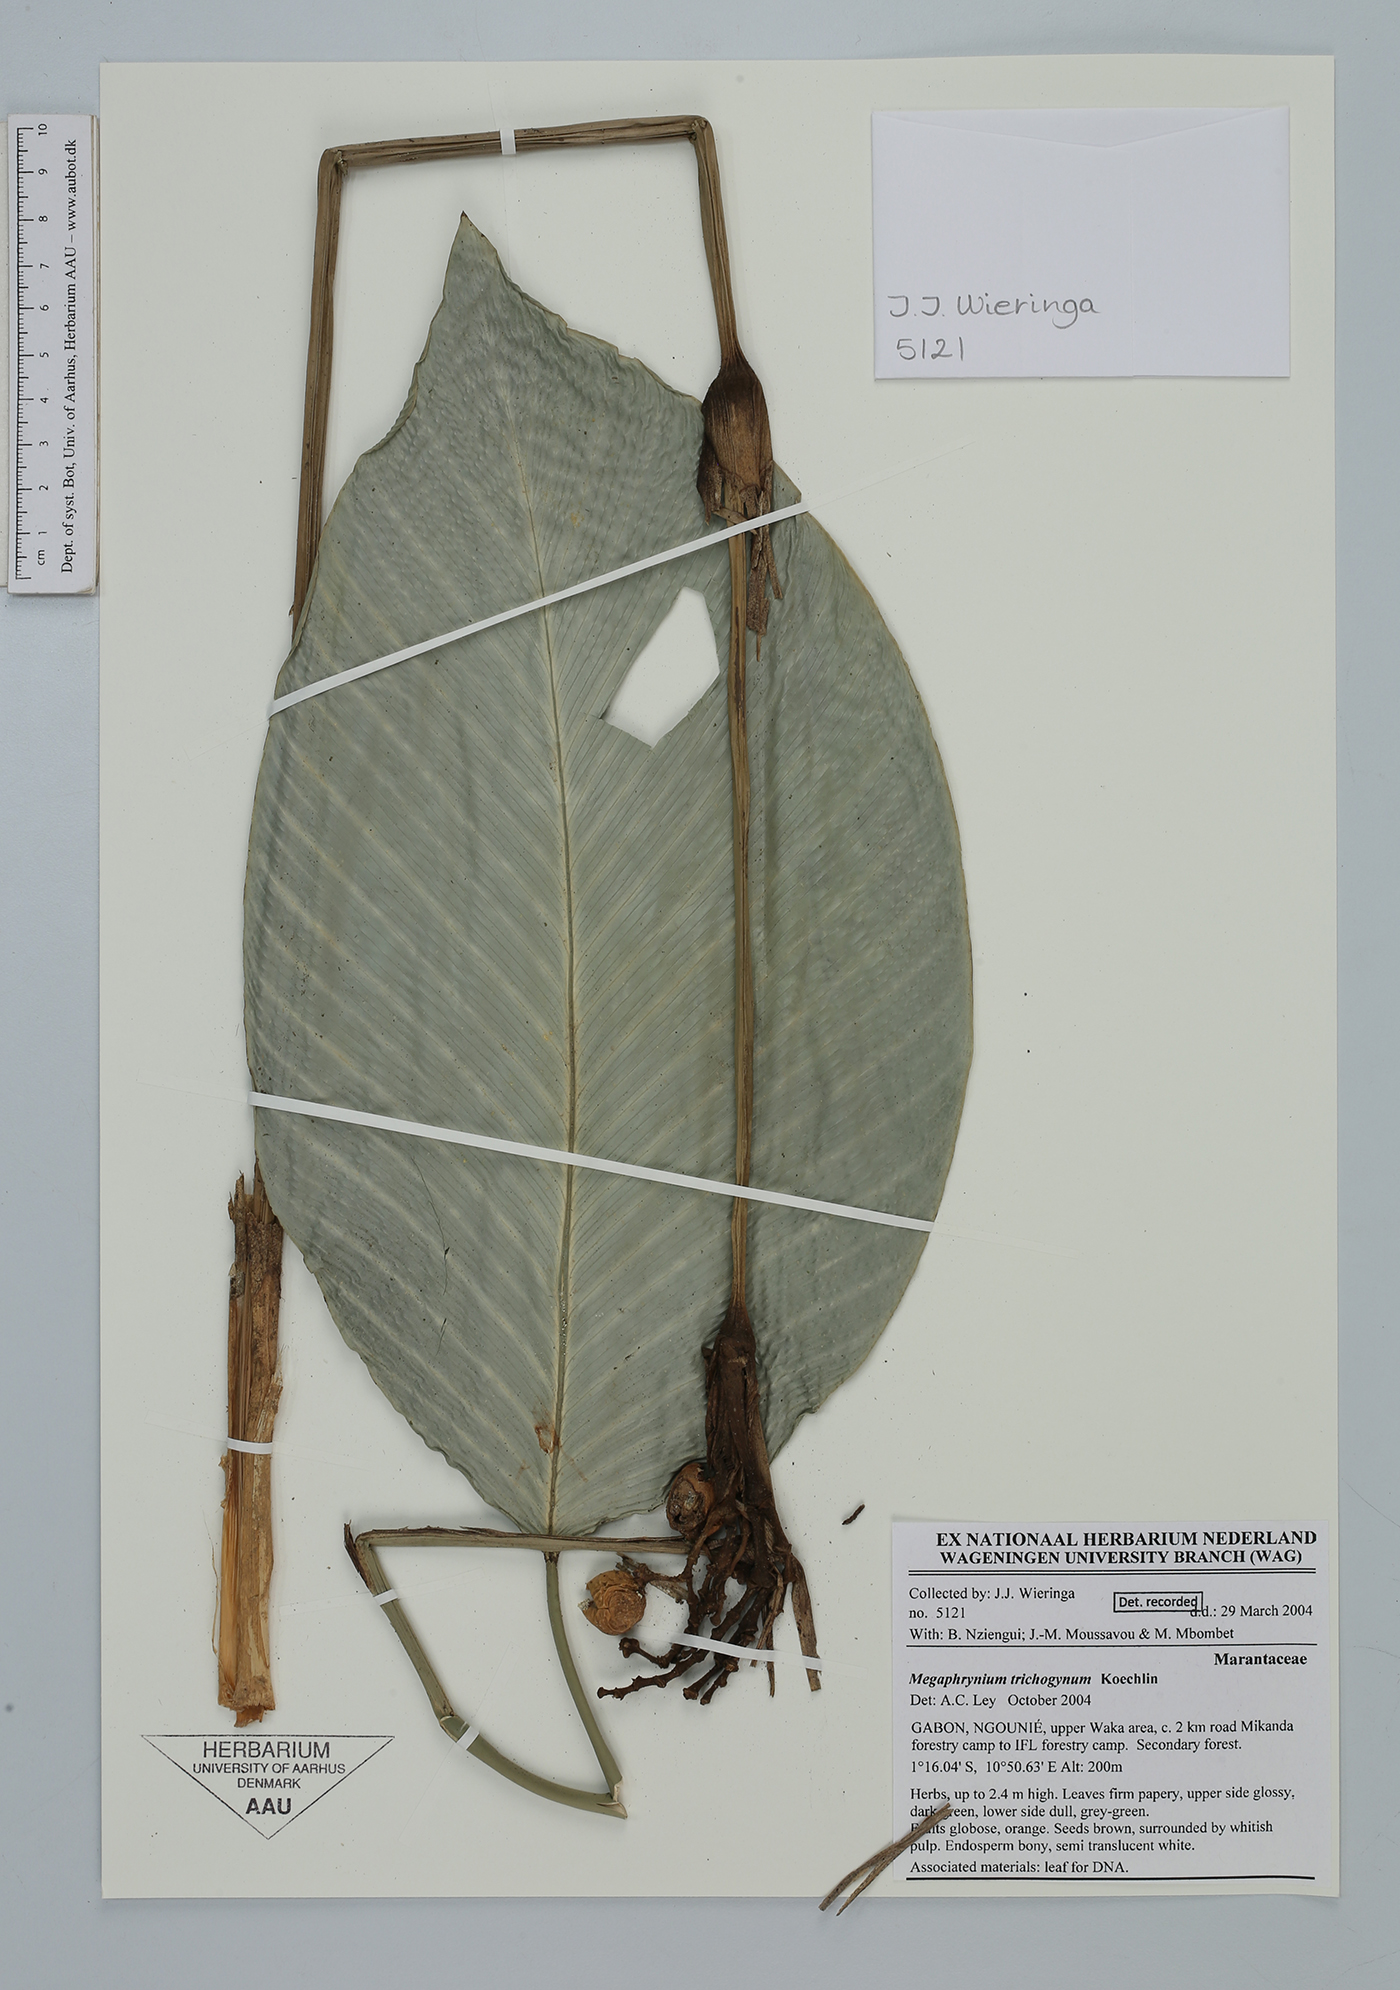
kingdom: Plantae
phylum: Tracheophyta
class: Liliopsida
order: Zingiberales
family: Marantaceae
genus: Megaphrynium
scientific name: Megaphrynium trichogynum
